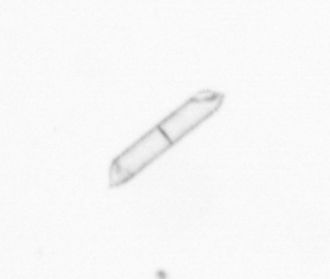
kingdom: Chromista
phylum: Ochrophyta
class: Bacillariophyceae
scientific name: Bacillariophyceae
